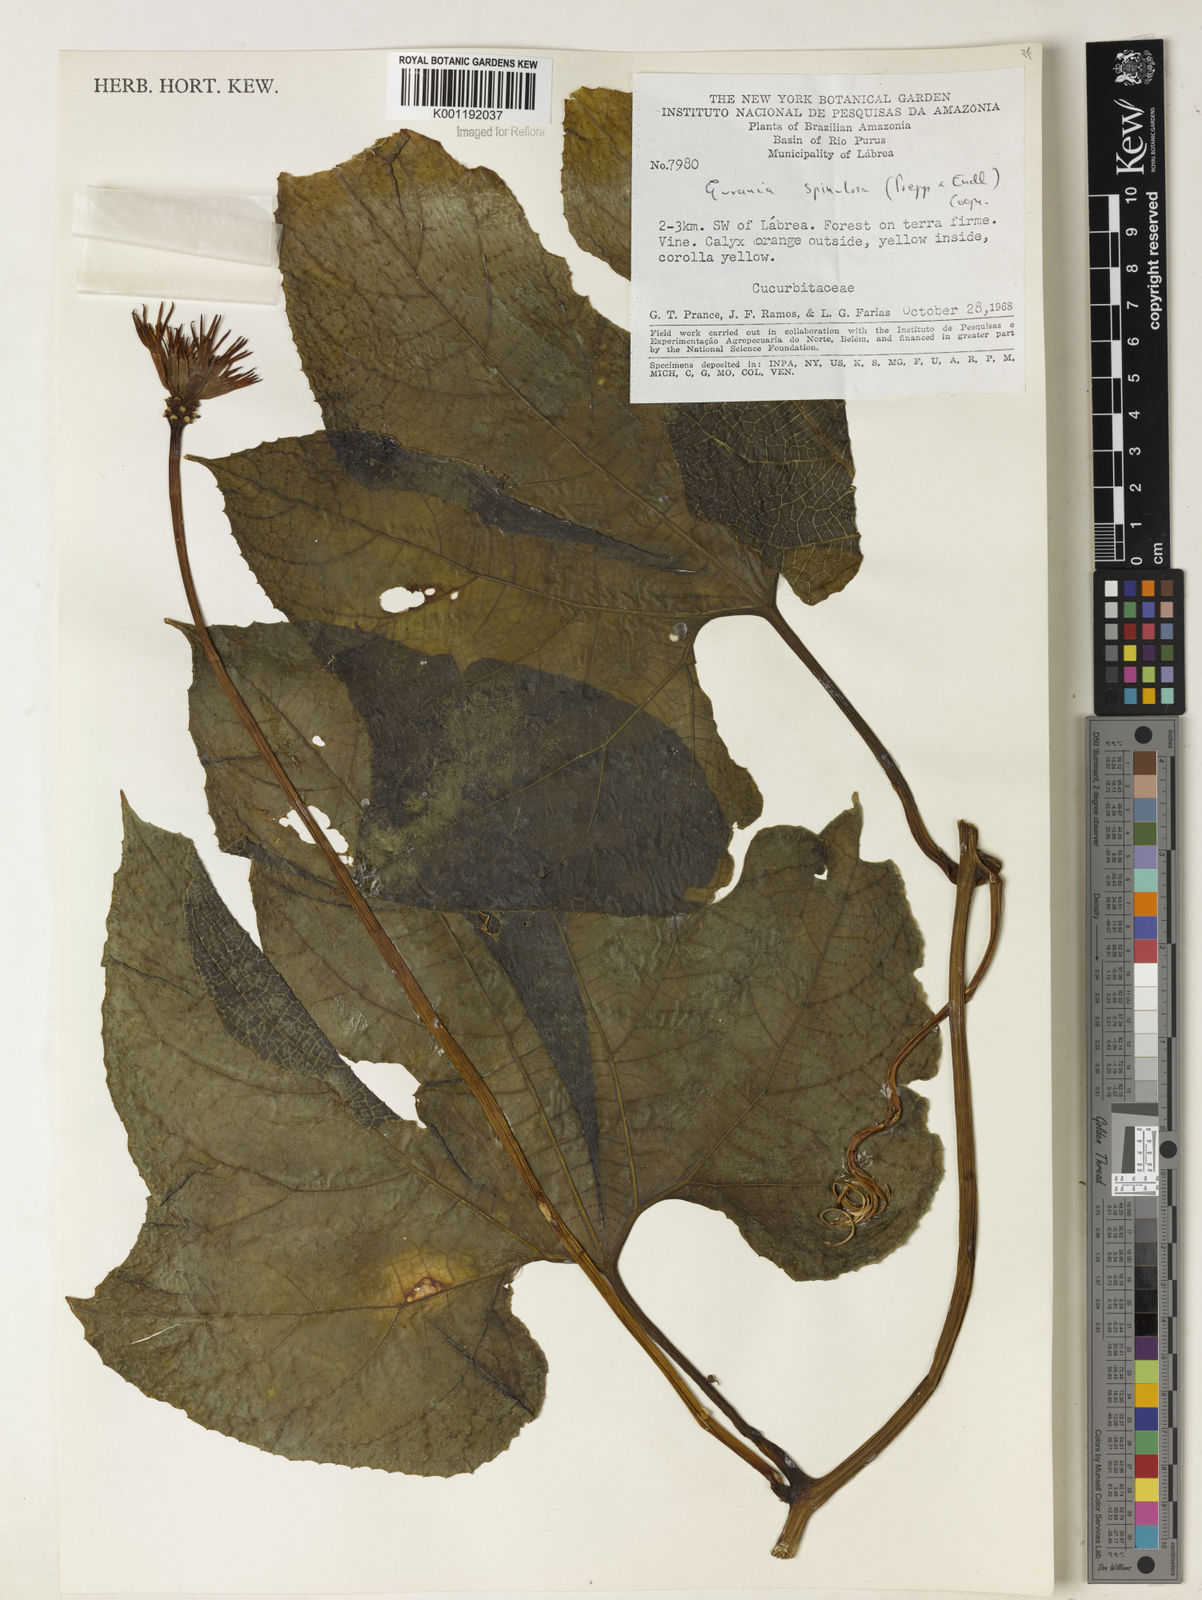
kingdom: Plantae
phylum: Tracheophyta
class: Magnoliopsida
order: Cucurbitales
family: Cucurbitaceae
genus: Gurania
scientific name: Gurania lobata
